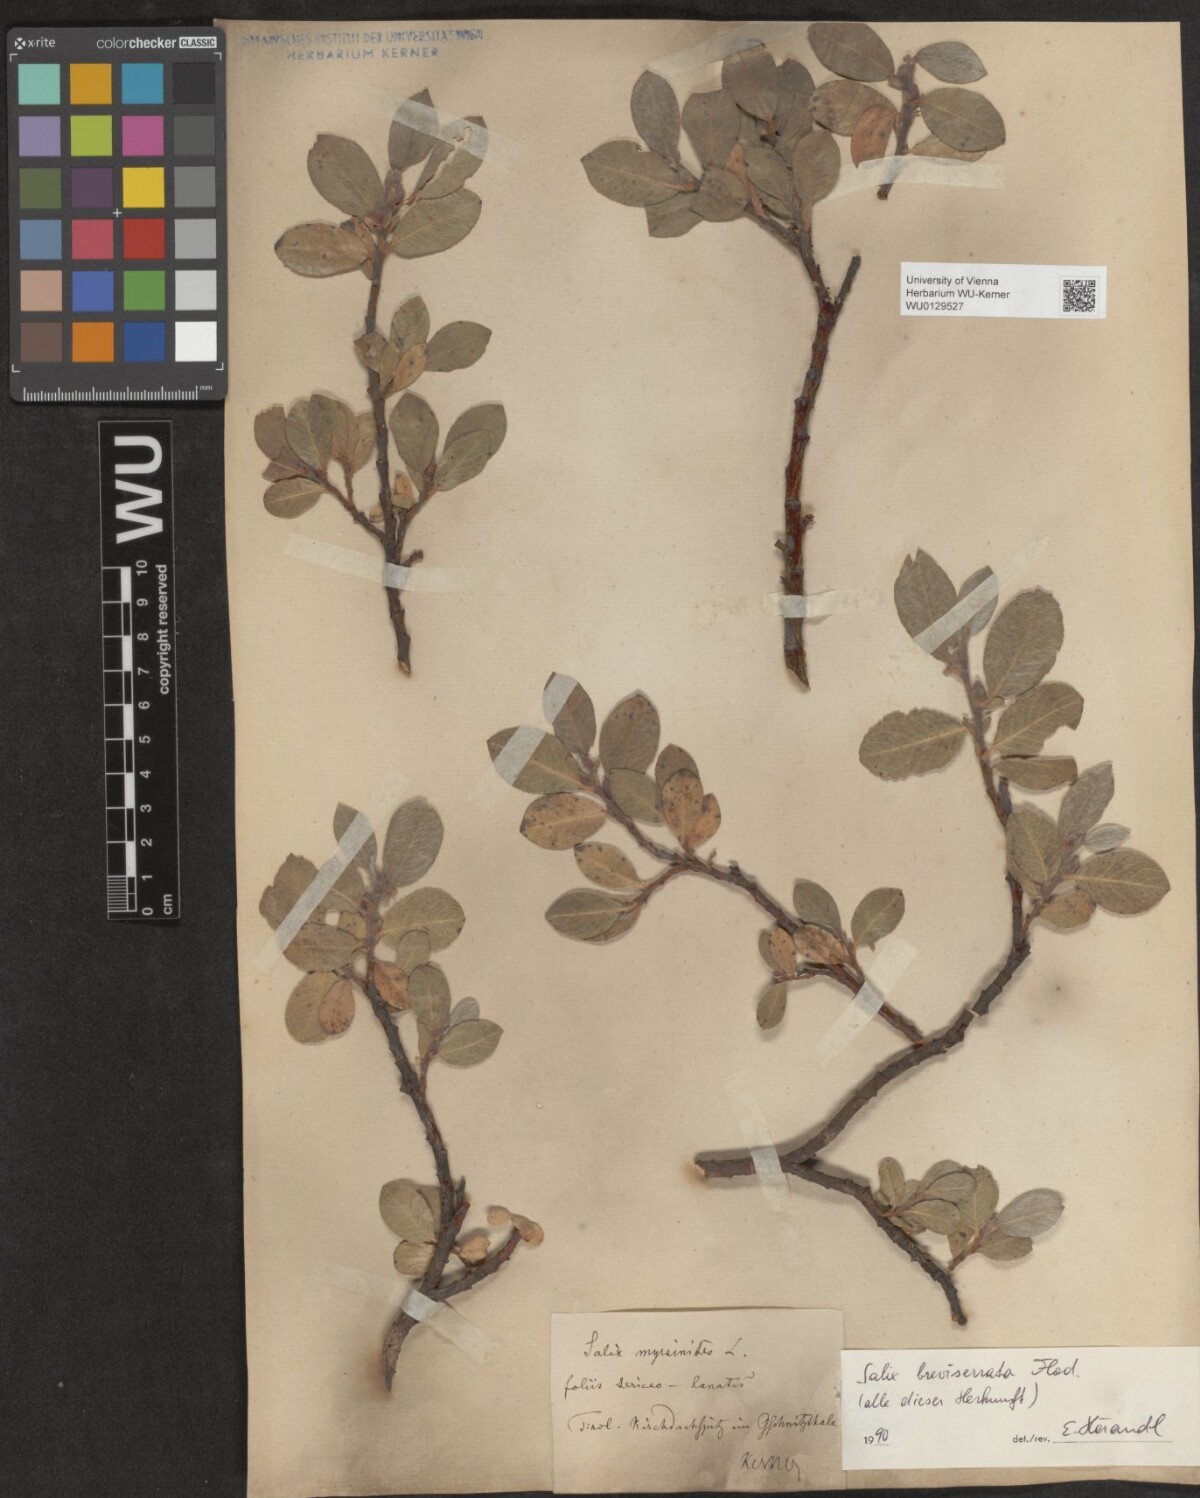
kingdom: Plantae
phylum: Tracheophyta
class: Magnoliopsida
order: Malpighiales
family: Salicaceae
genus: Salix
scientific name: Salix breviserrata
